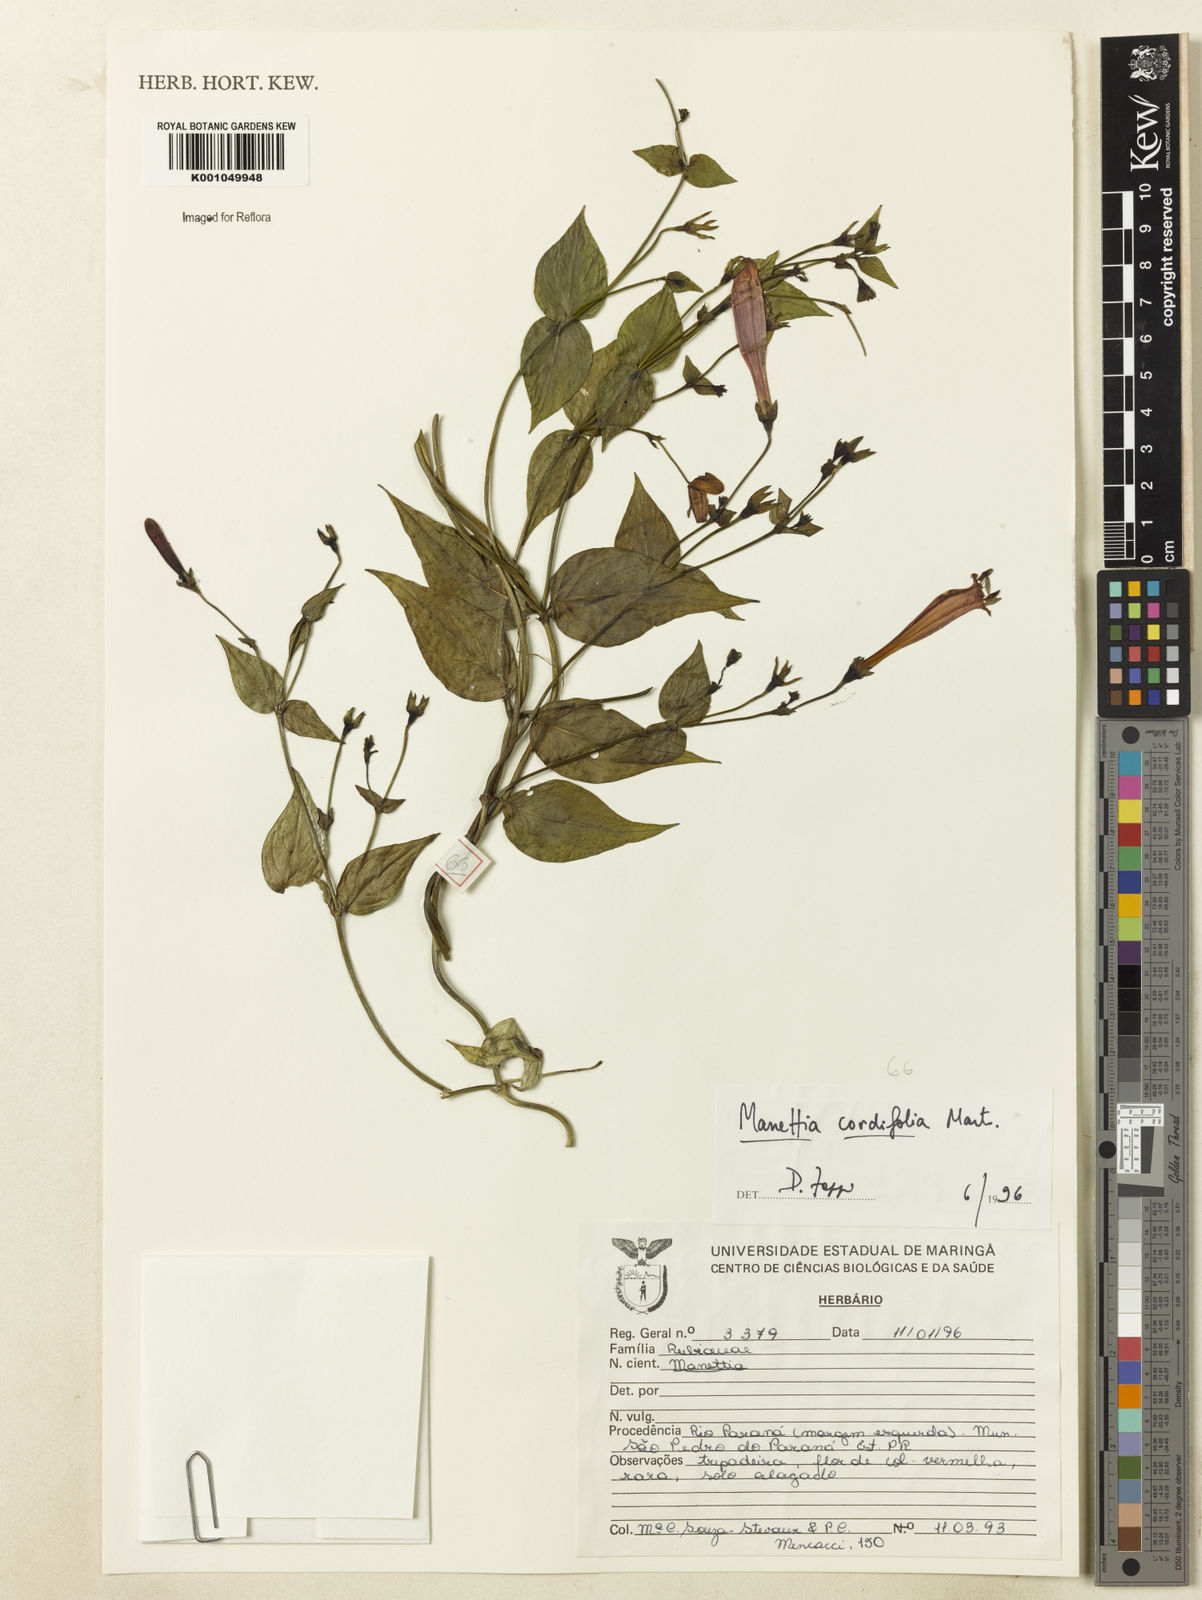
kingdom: Plantae
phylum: Tracheophyta
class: Magnoliopsida
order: Gentianales
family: Rubiaceae
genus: Manettia
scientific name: Manettia cordifolia
